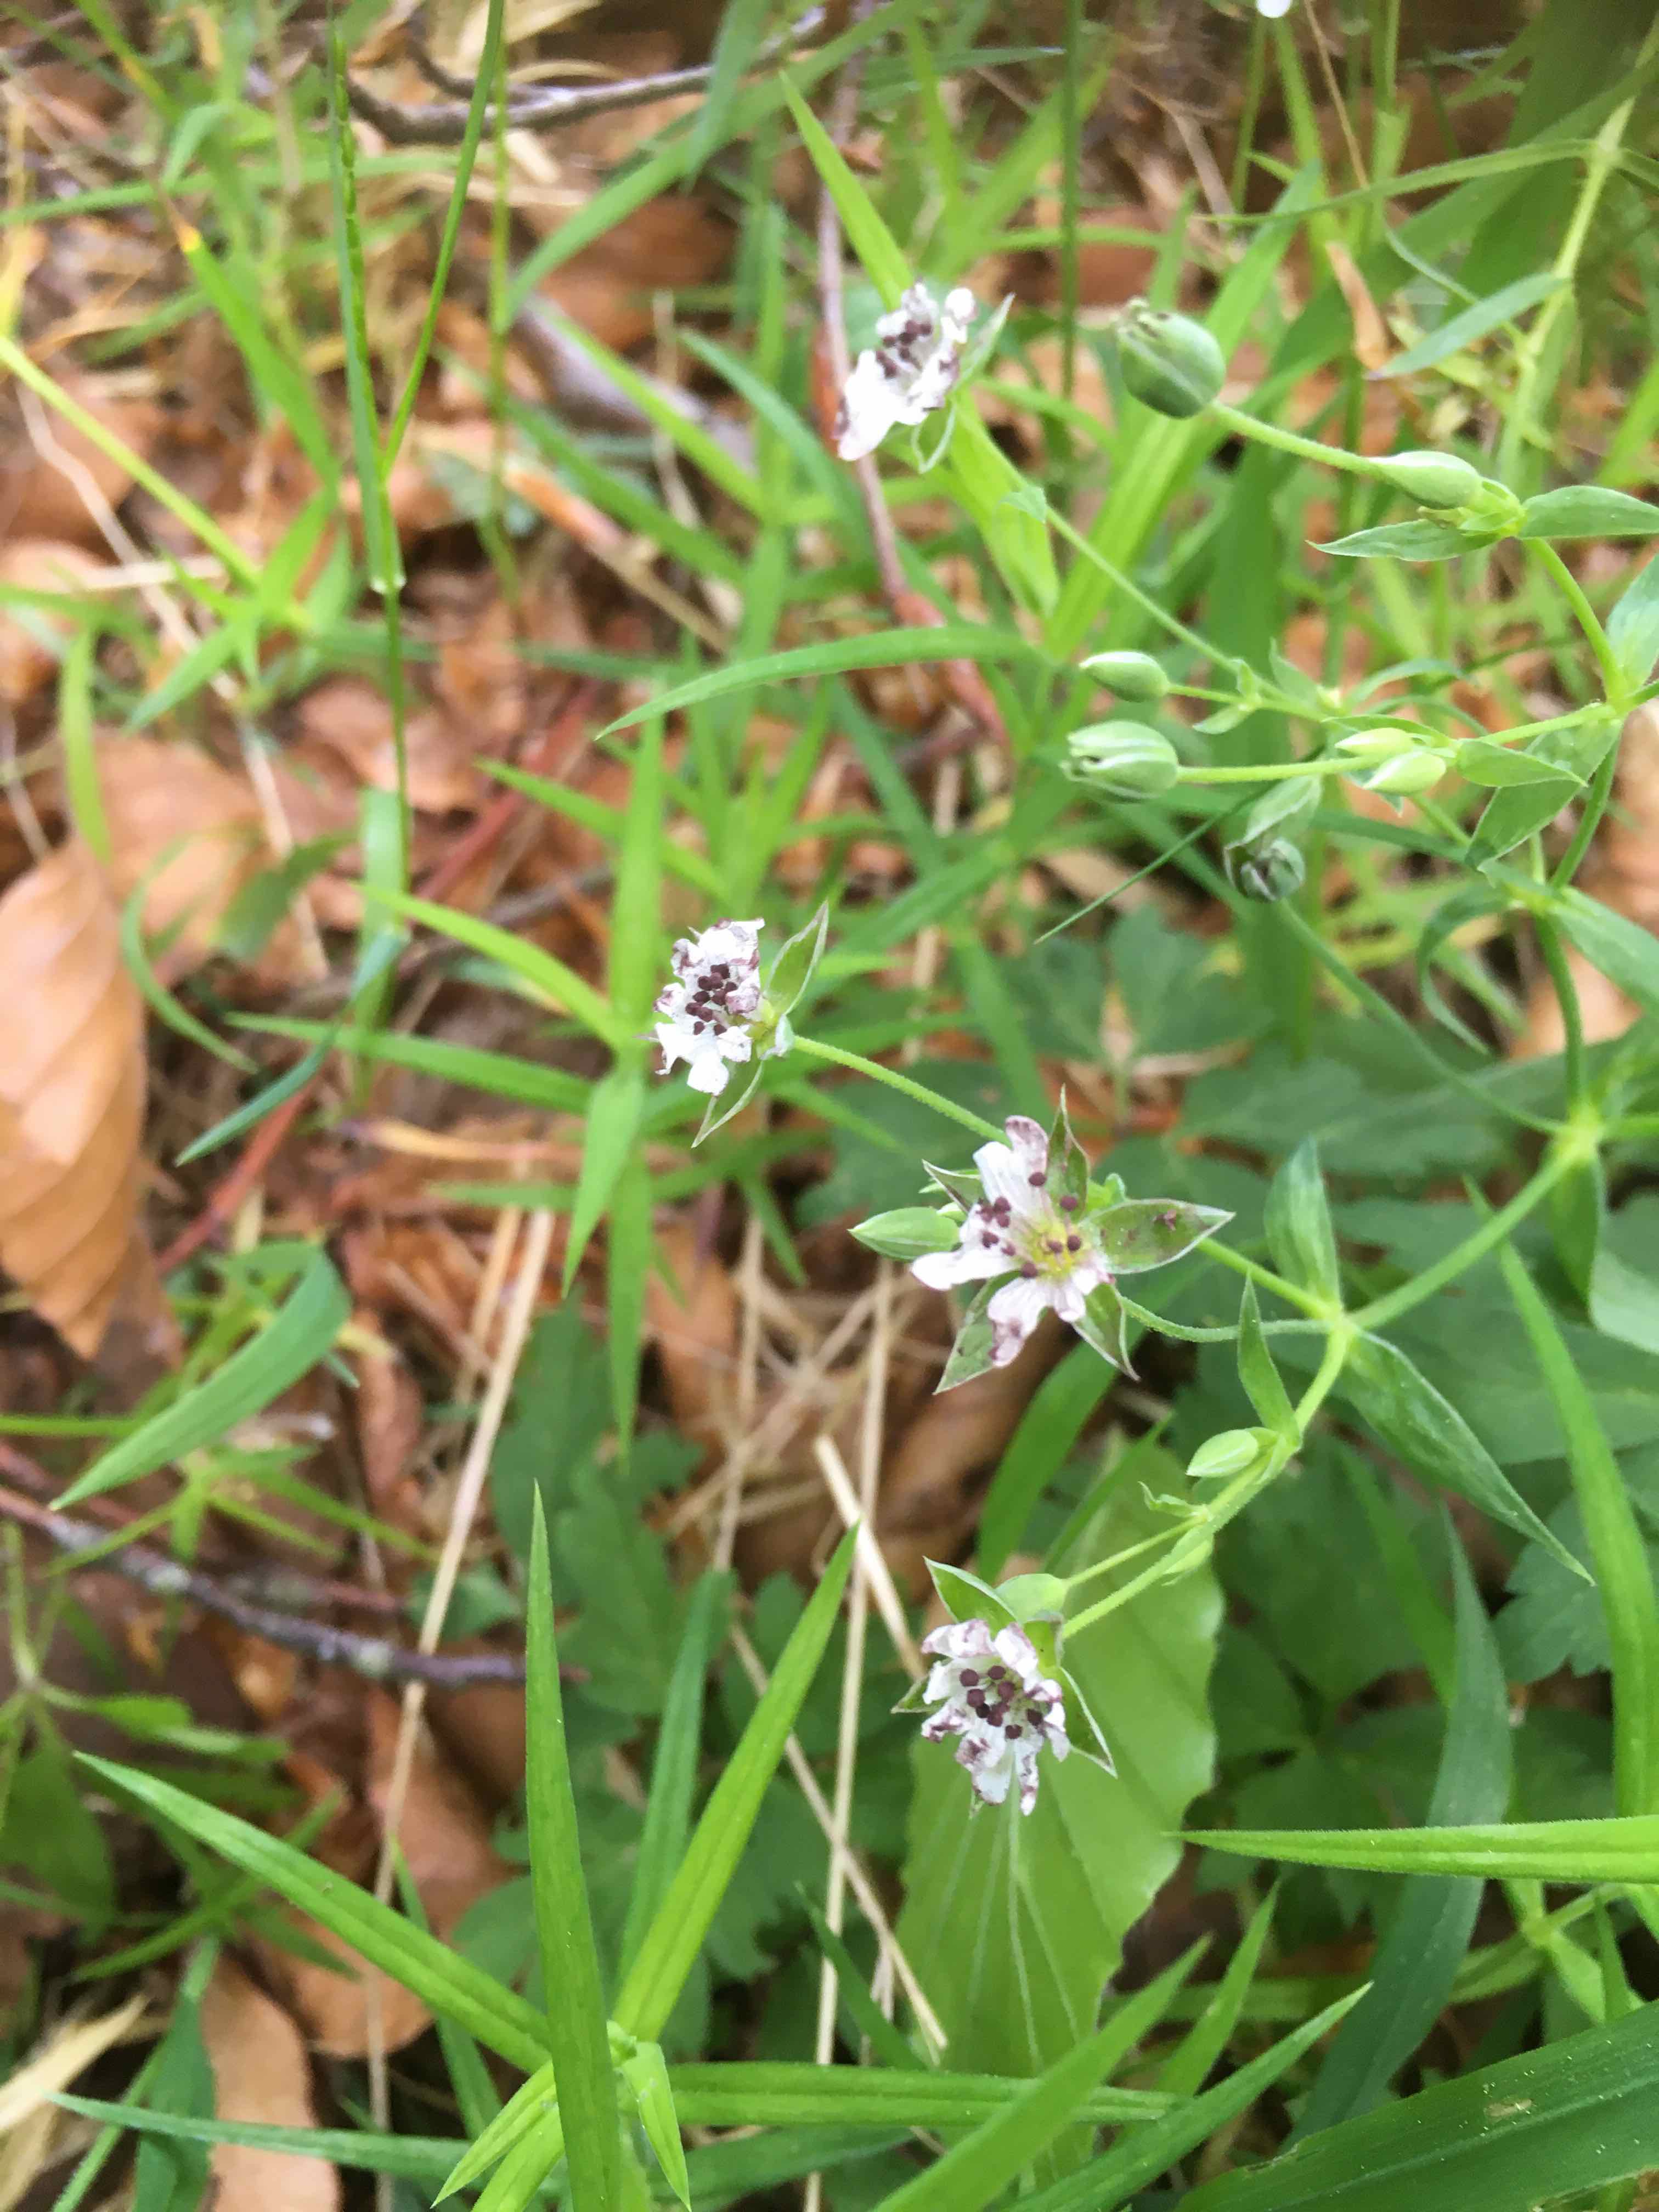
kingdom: Fungi
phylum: Basidiomycota
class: Microbotryomycetes
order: Microbotryales
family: Microbotryaceae
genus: Microbotryum
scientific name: Microbotryum stellariae
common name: fladstjerne-støvbladrust
